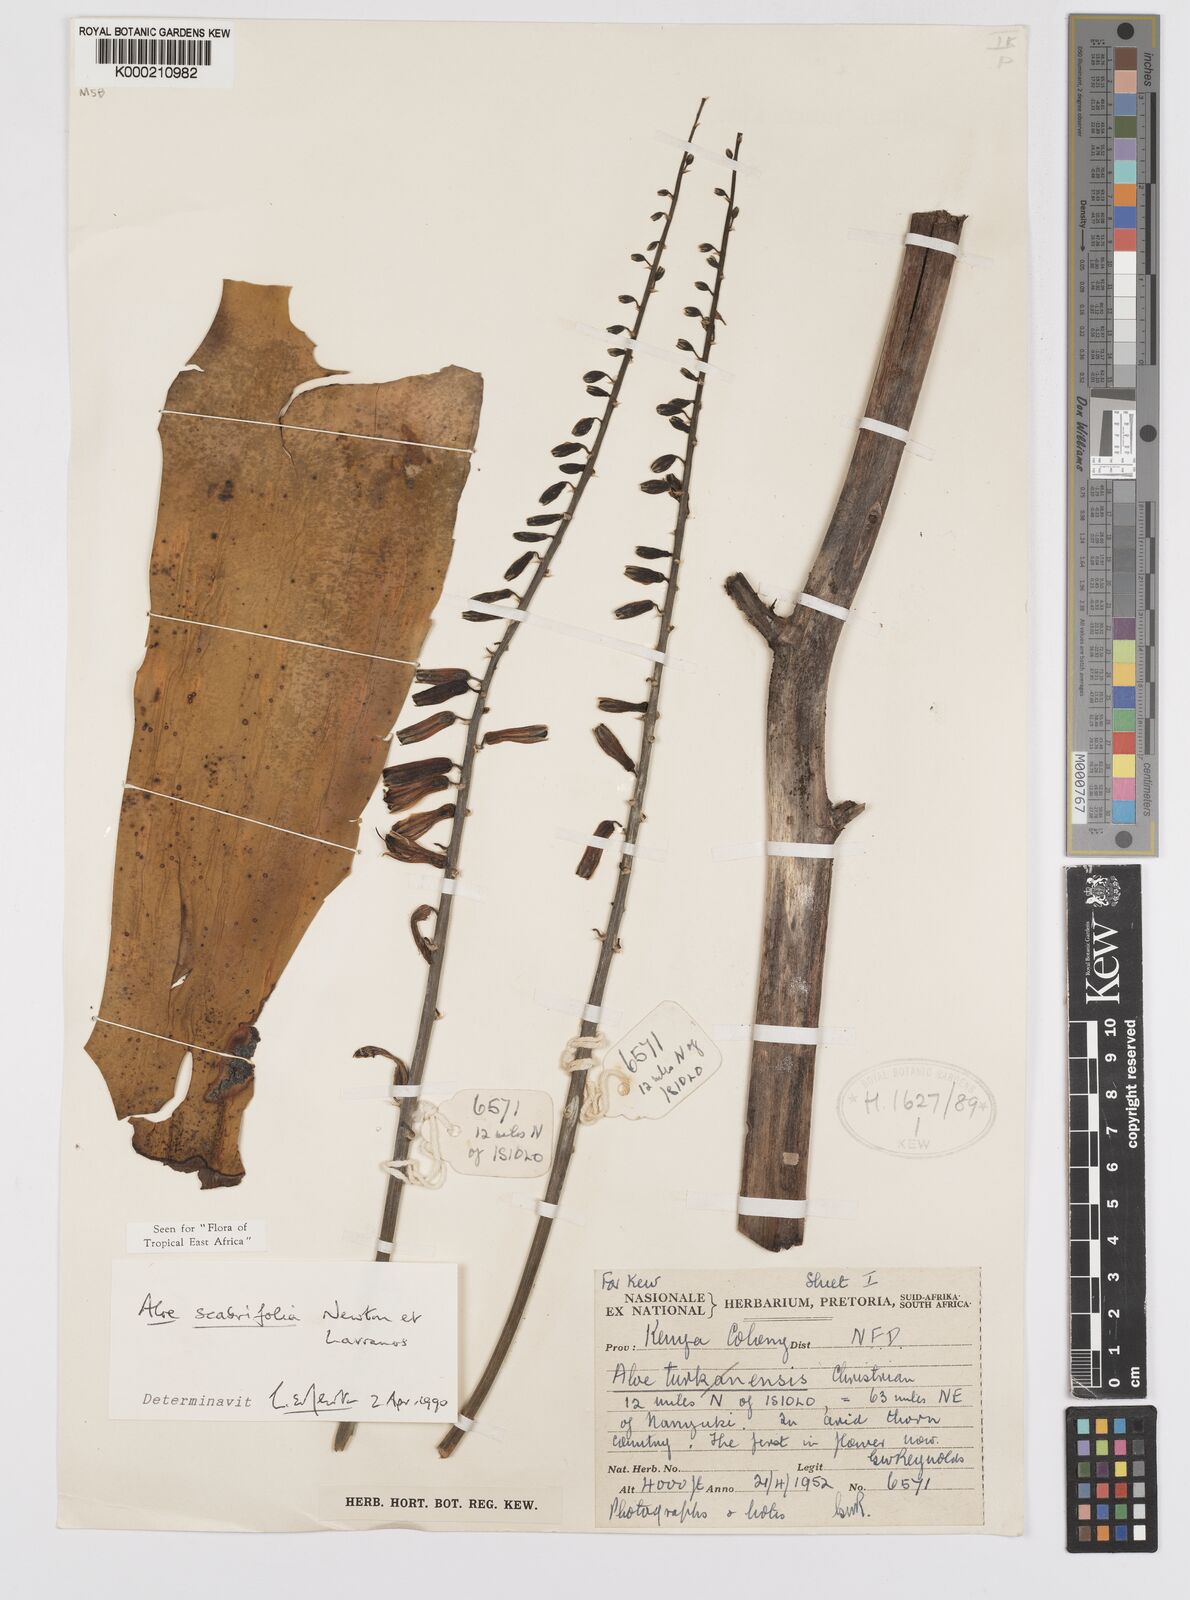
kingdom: Plantae
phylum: Tracheophyta
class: Liliopsida
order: Asparagales
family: Asphodelaceae
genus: Aloe
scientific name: Aloe scabrifolia
